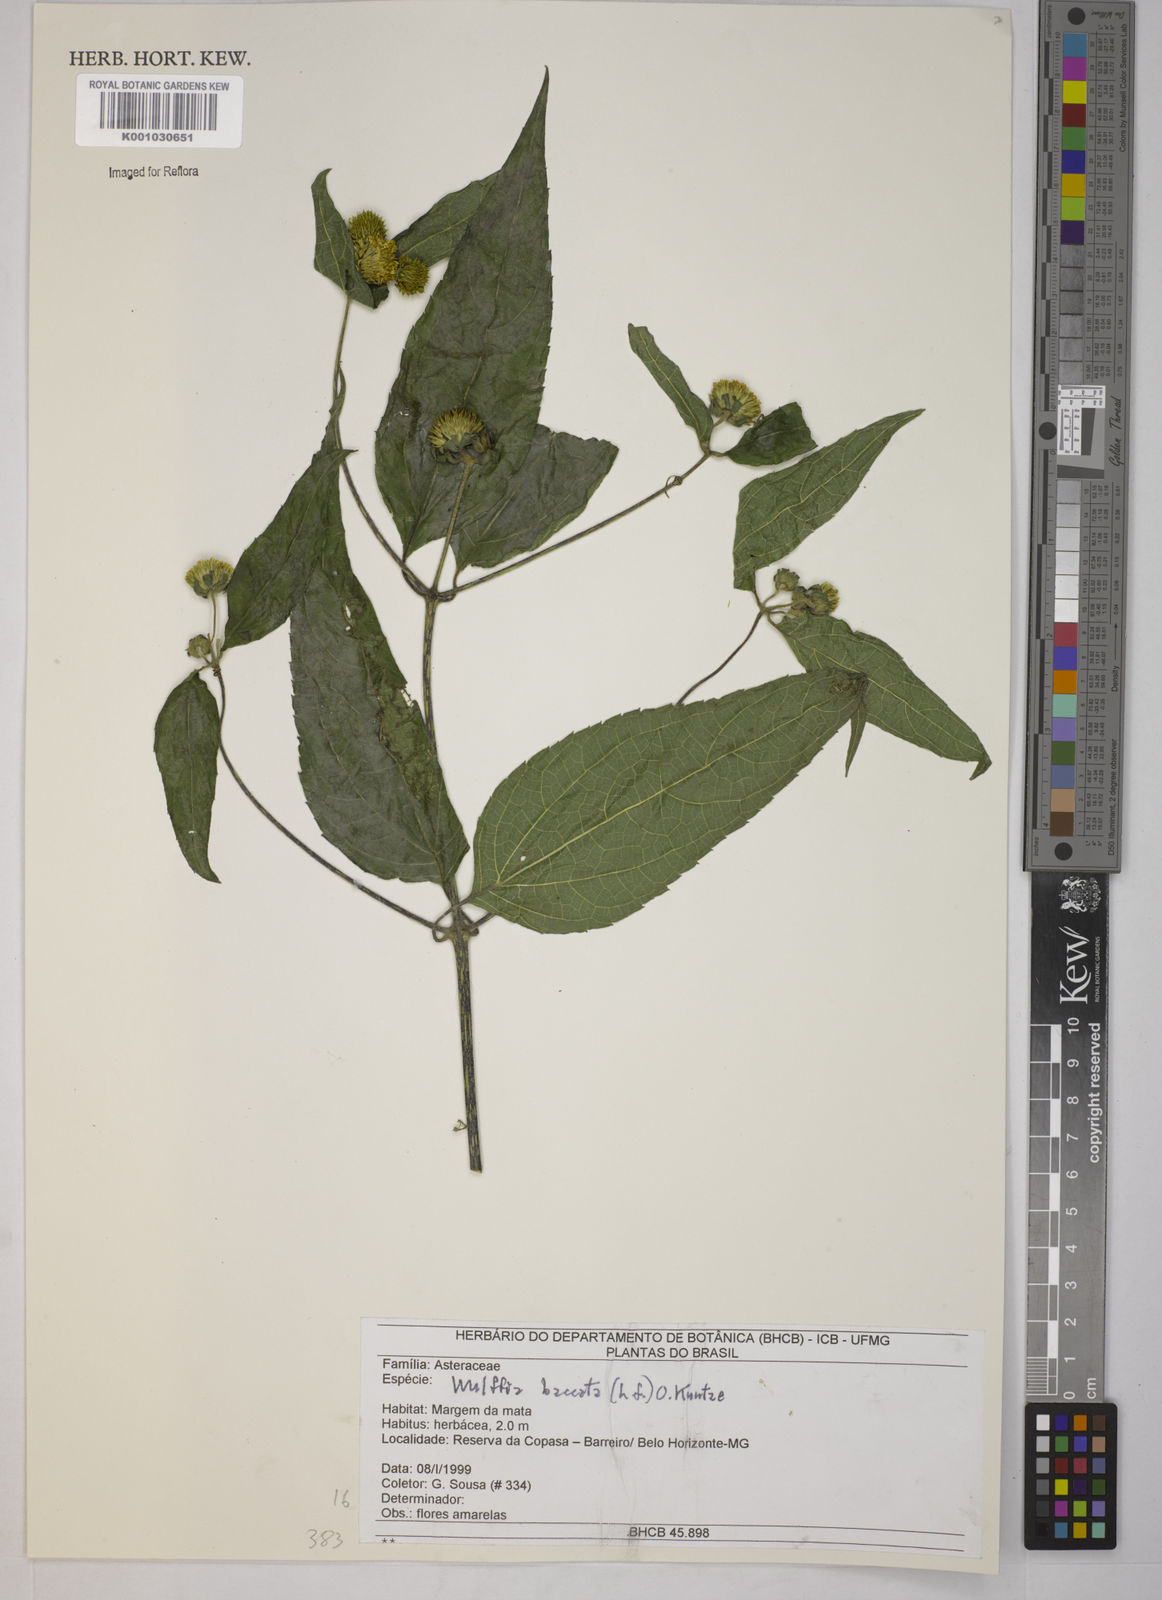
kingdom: Plantae
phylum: Tracheophyta
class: Magnoliopsida
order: Asterales
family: Asteraceae
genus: Tilesia
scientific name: Tilesia baccata
